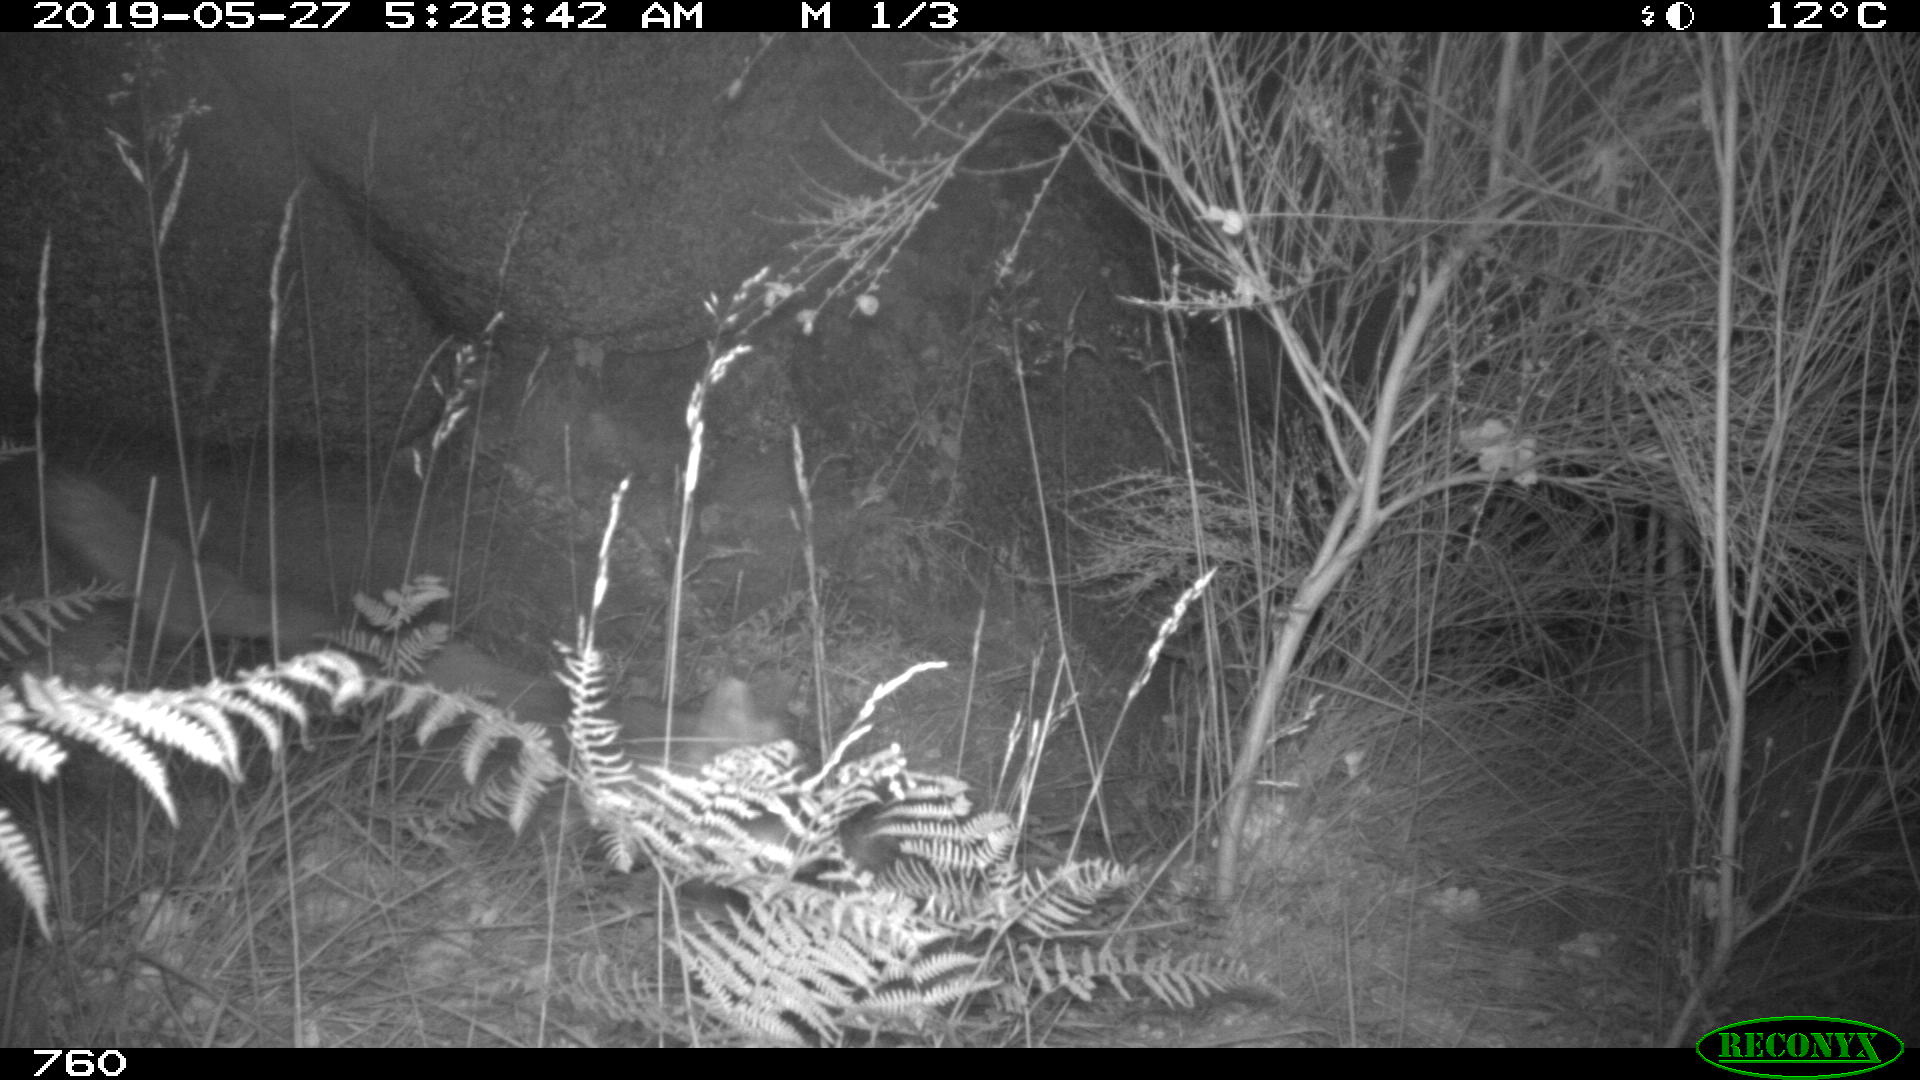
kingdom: Animalia
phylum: Chordata
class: Mammalia
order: Carnivora
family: Canidae
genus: Vulpes
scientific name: Vulpes vulpes
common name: Red fox
